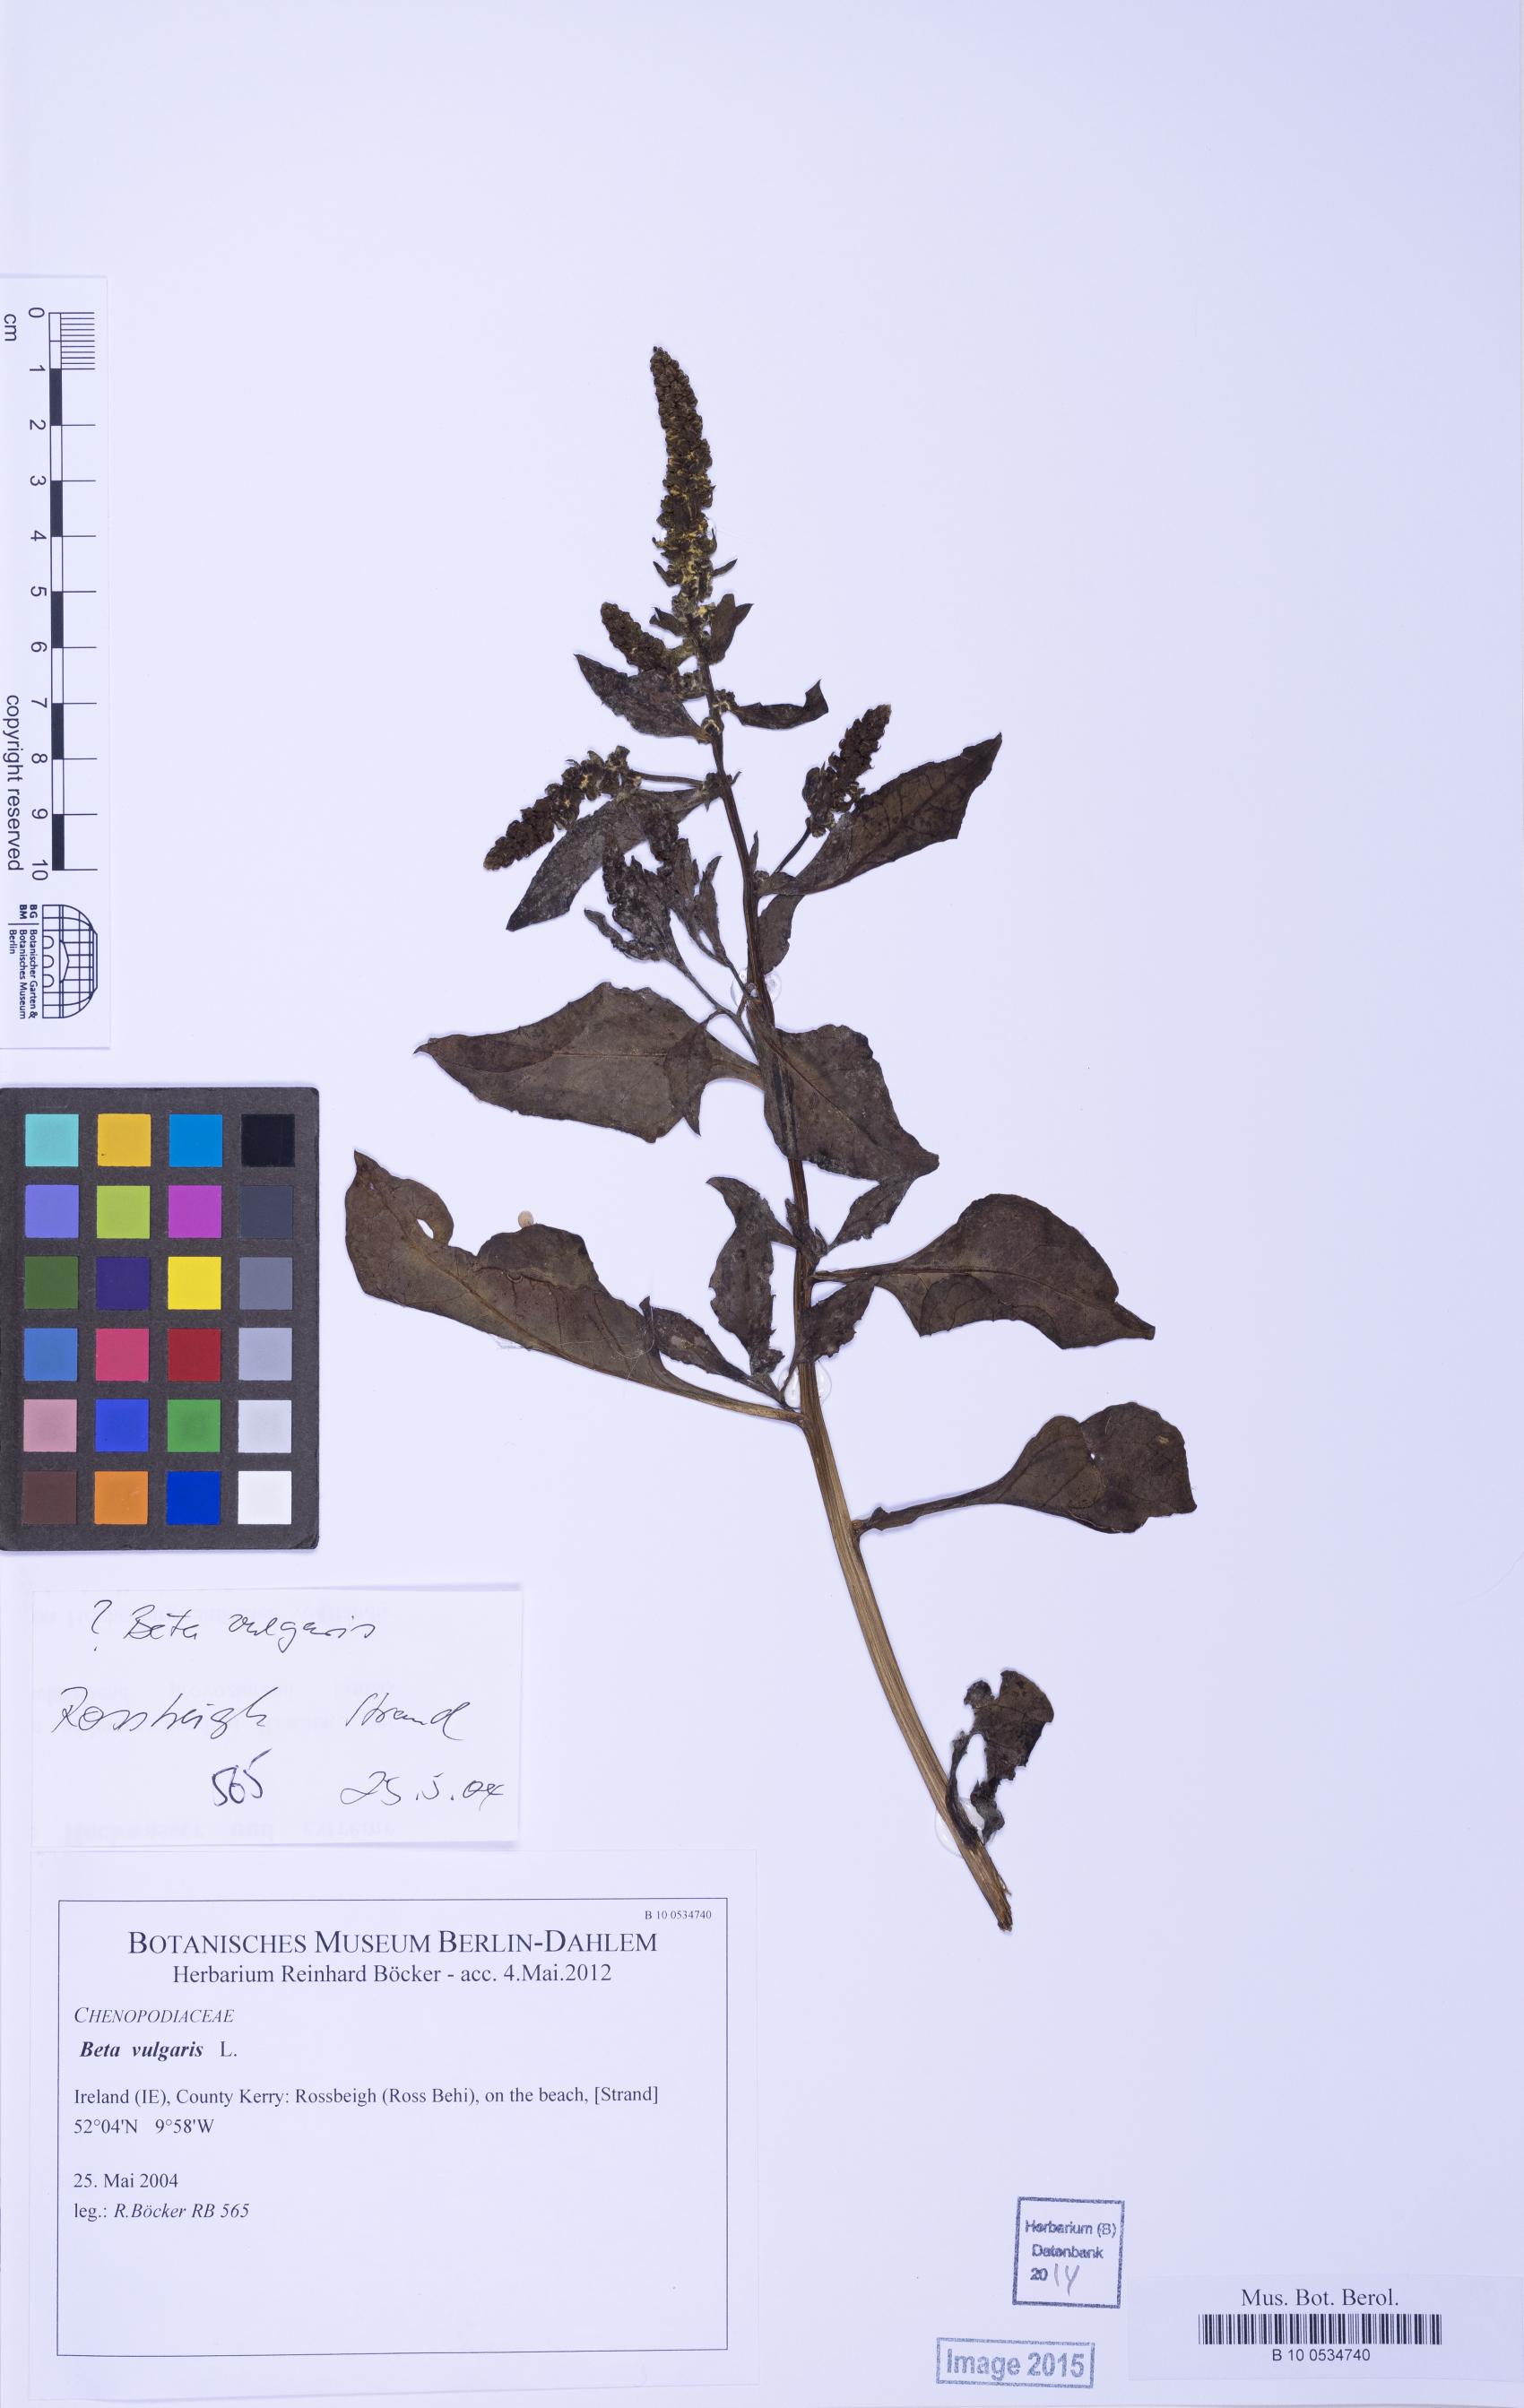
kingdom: Plantae
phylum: Tracheophyta
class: Magnoliopsida
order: Caryophyllales
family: Amaranthaceae
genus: Beta
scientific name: Beta vulgaris
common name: Beet
